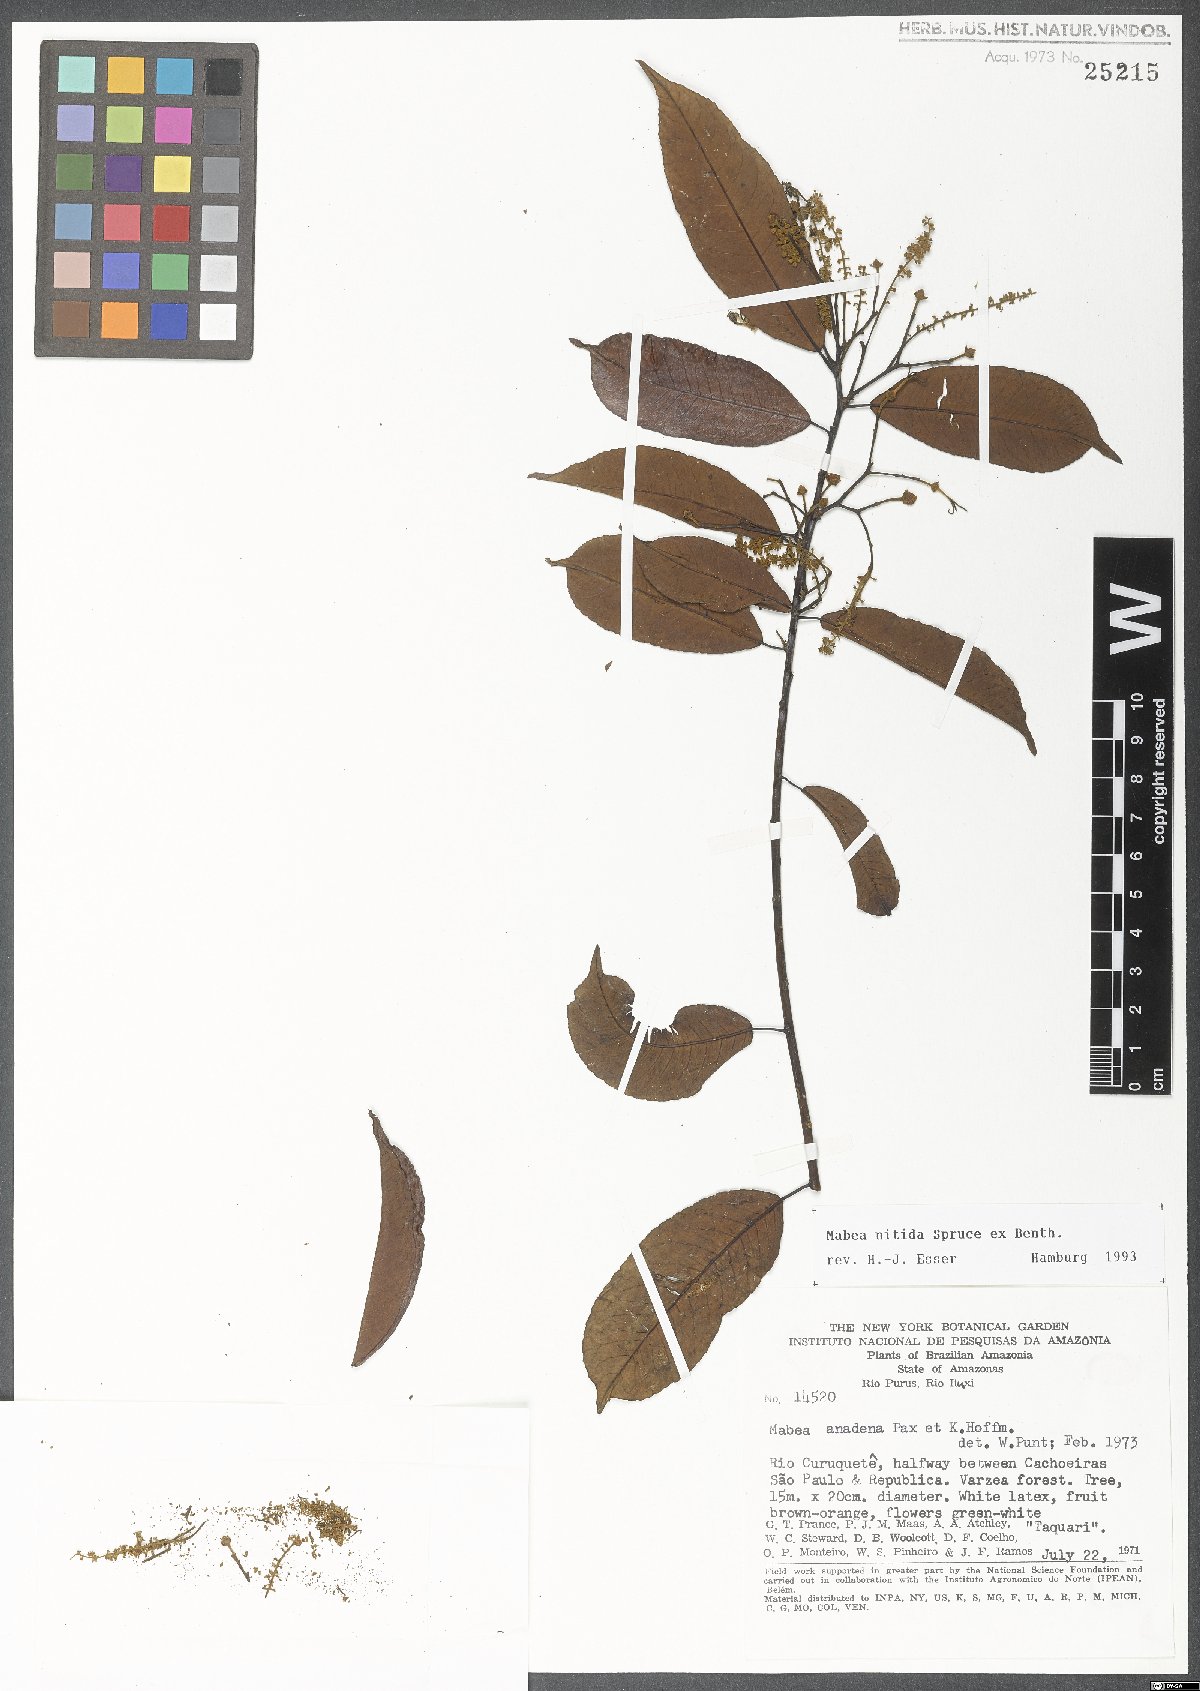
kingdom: Plantae
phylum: Tracheophyta
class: Magnoliopsida
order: Malpighiales
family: Euphorbiaceae
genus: Mabea
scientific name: Mabea nitida
